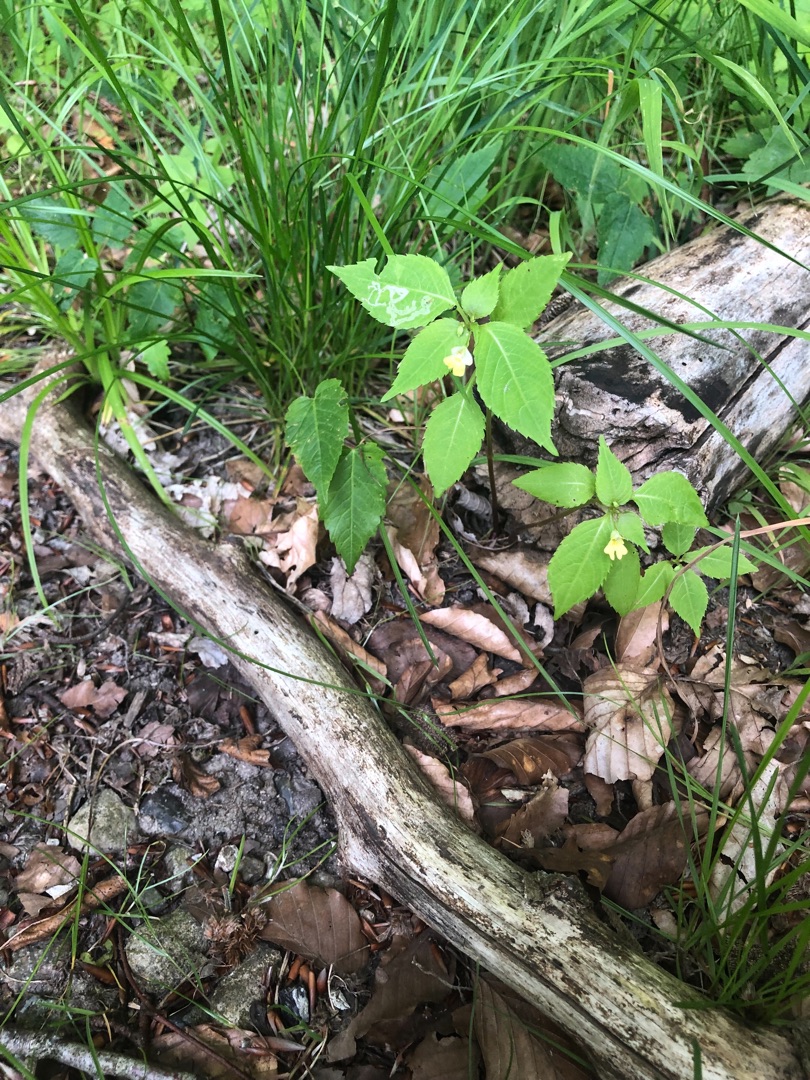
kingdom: Plantae
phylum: Tracheophyta
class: Magnoliopsida
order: Ericales
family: Balsaminaceae
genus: Impatiens
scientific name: Impatiens parviflora
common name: Småblomstret balsamin
